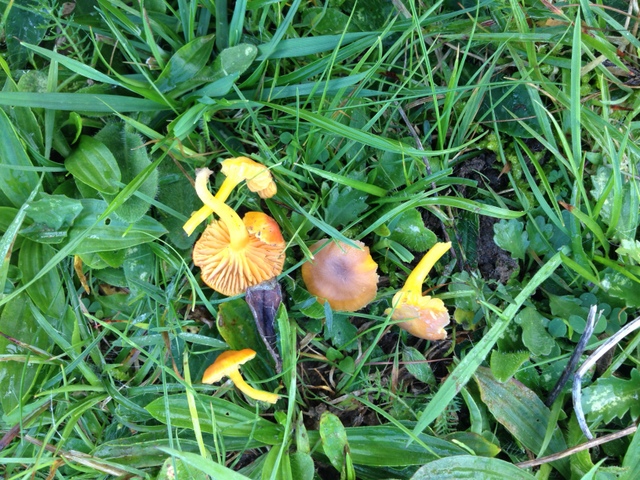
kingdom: Fungi
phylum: Basidiomycota
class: Agaricomycetes
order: Agaricales
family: Hygrophoraceae
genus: Hygrocybe
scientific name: Hygrocybe phaeococcinea
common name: sortdugget vokshat
